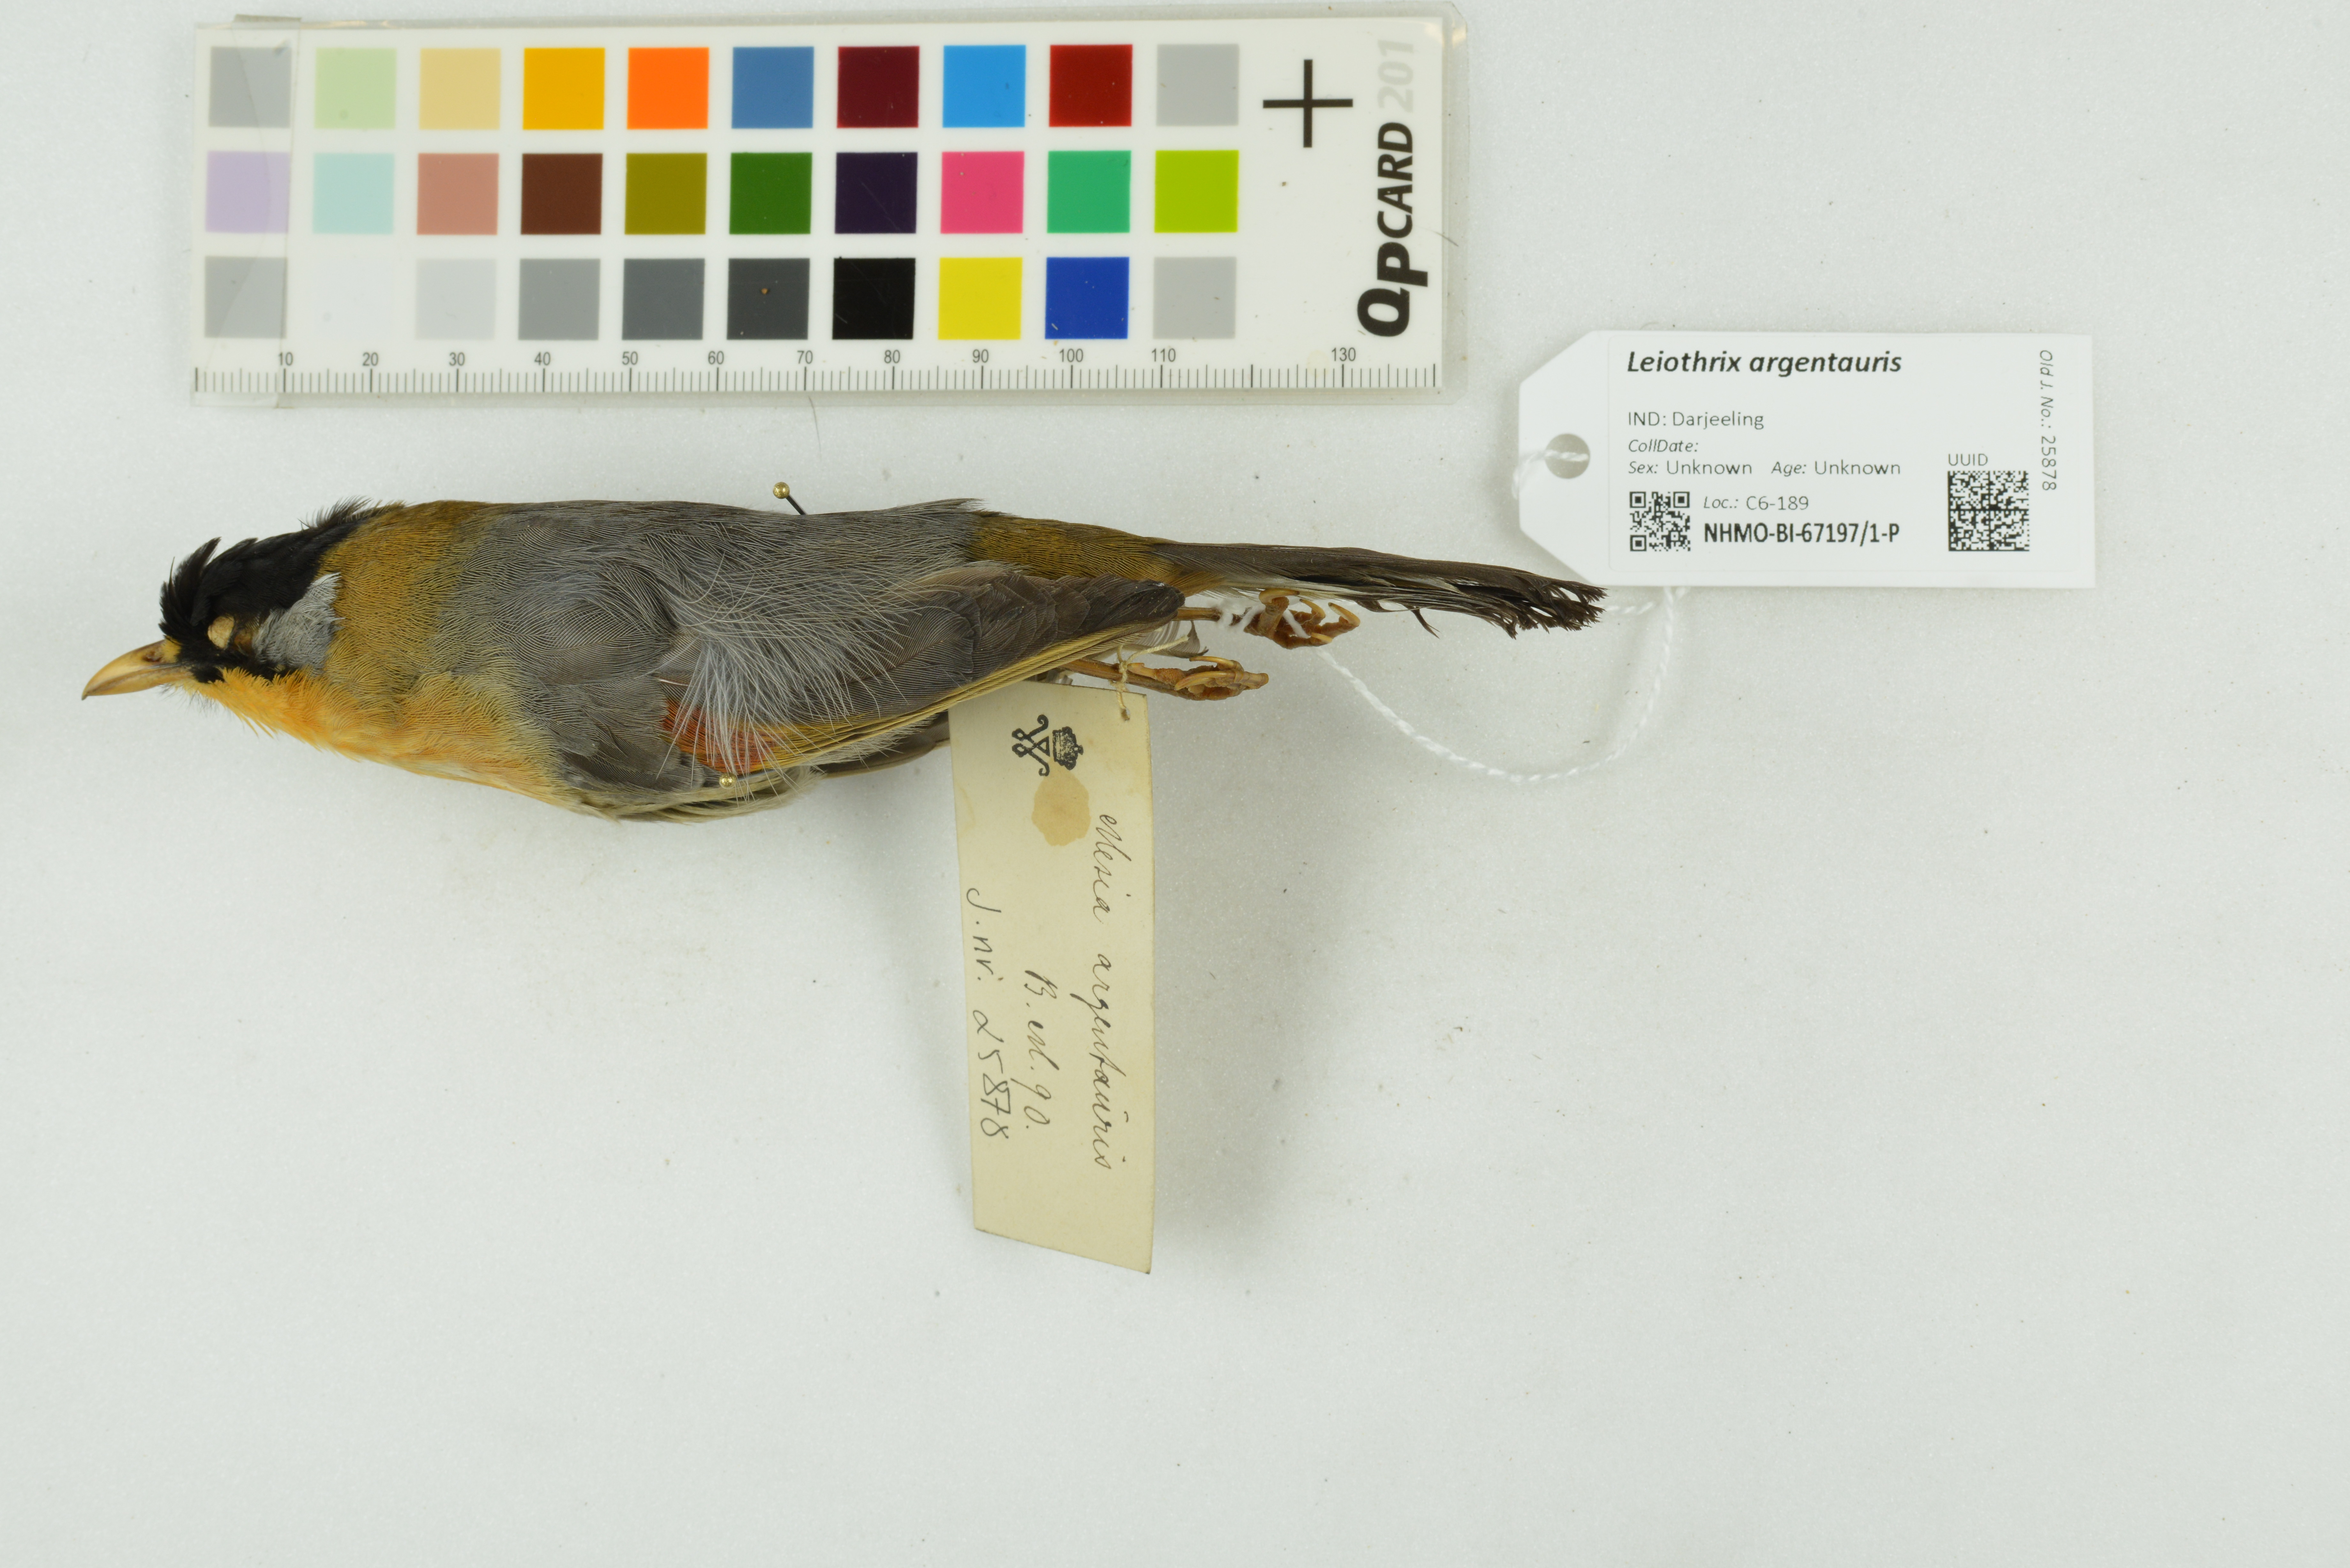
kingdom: Animalia
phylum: Chordata
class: Aves
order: Passeriformes
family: Leiothrichidae
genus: Leiothrix
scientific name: Leiothrix argentauris
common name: Silver-eared mesia
